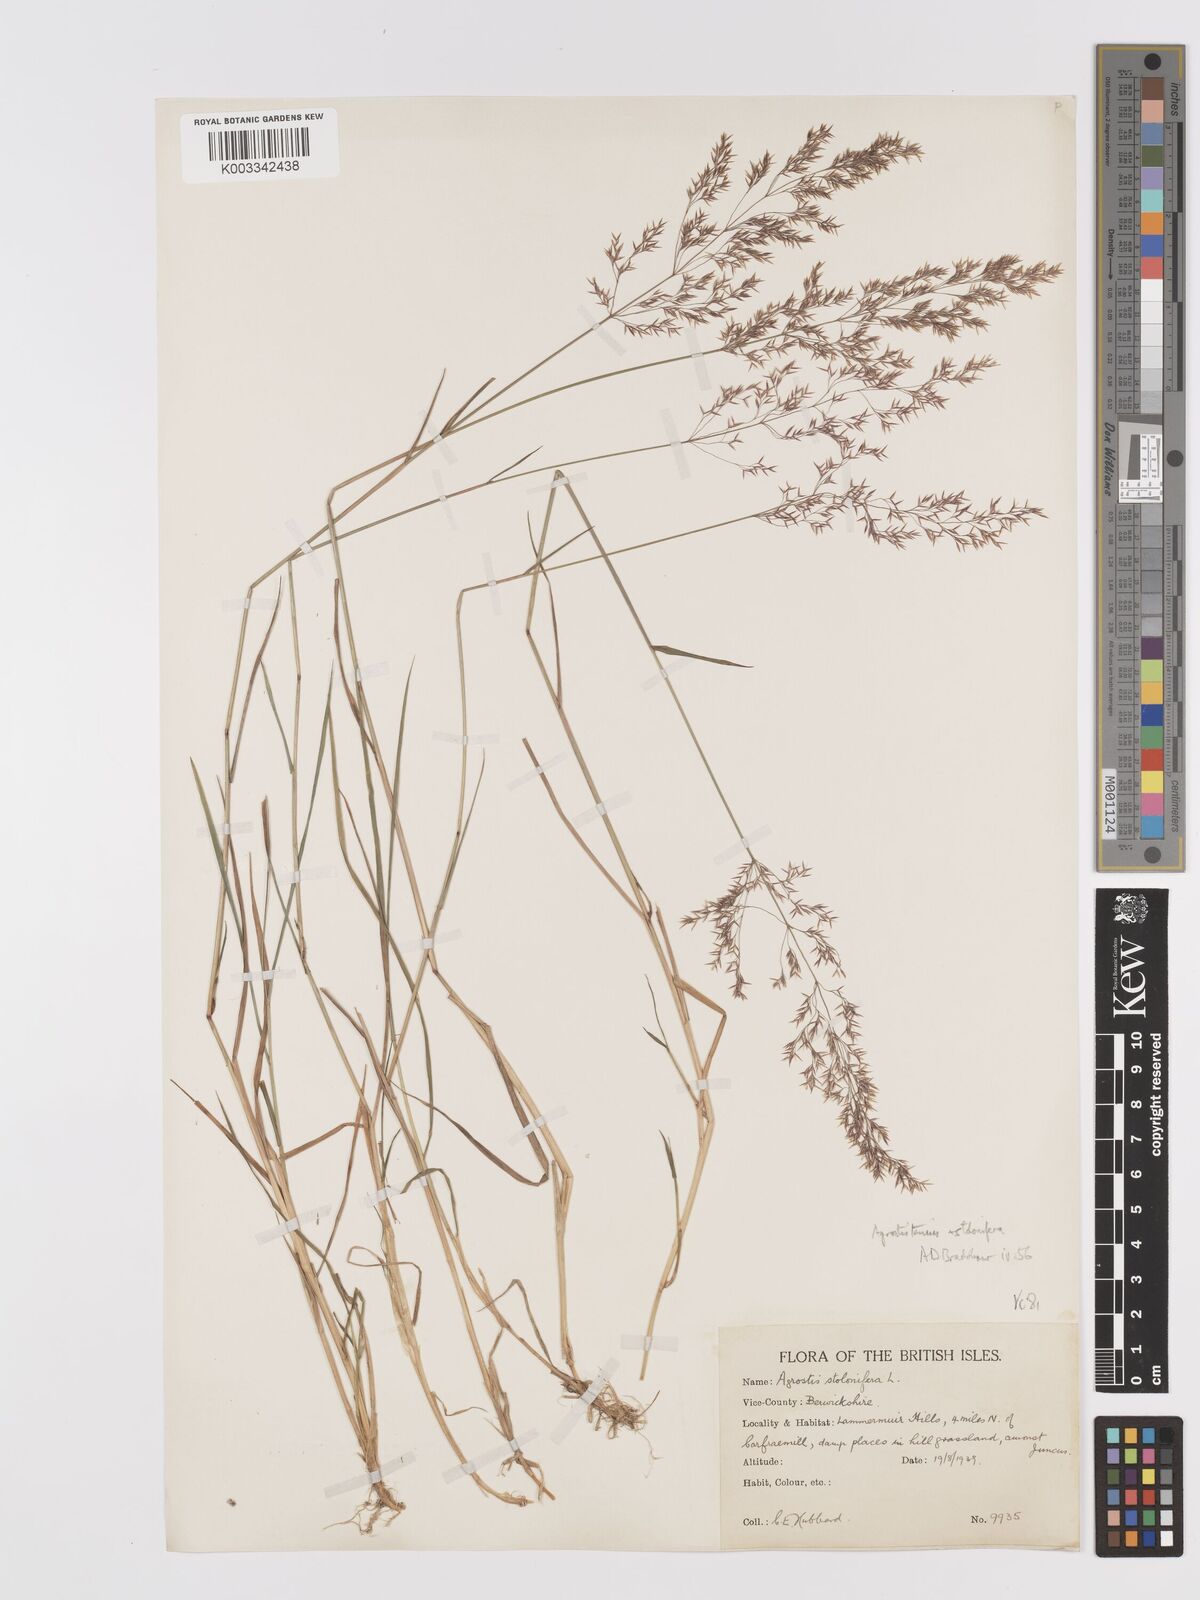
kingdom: Plantae
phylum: Tracheophyta
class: Liliopsida
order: Poales
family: Poaceae
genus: Agrostis
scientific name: Agrostis capillaris
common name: Colonial bentgrass
